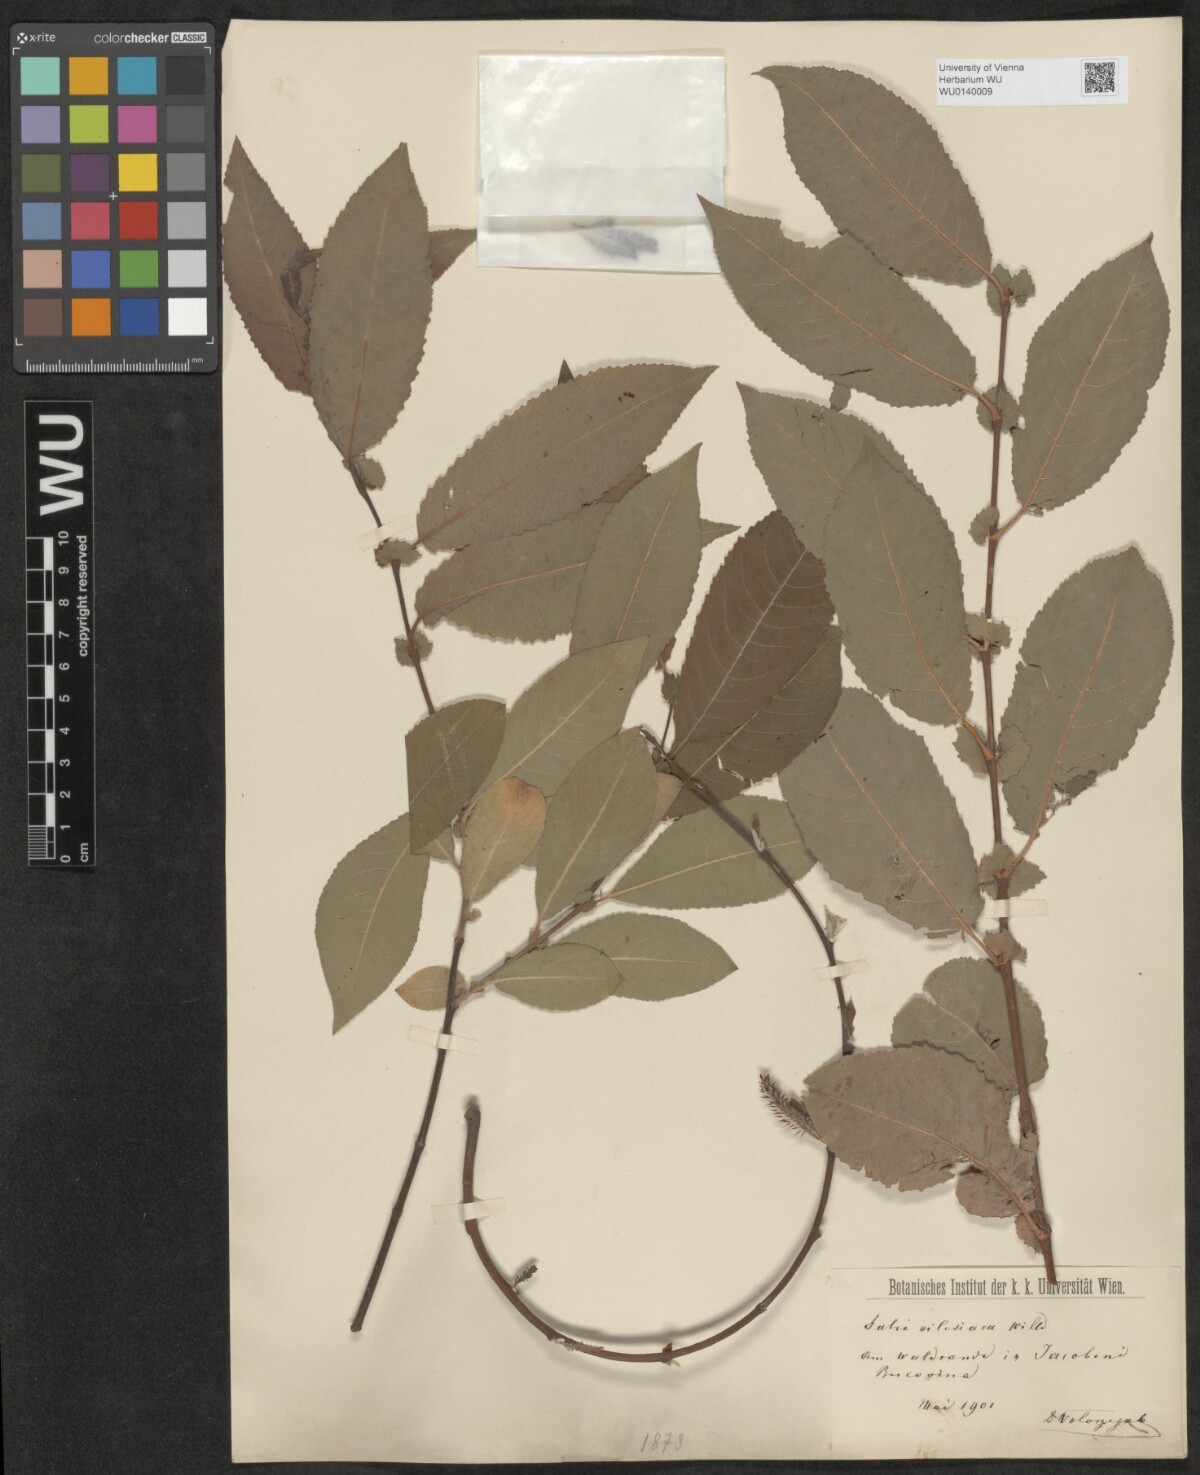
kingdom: Plantae
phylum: Tracheophyta
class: Magnoliopsida
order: Malpighiales
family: Salicaceae
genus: Salix
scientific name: Salix silesiaca
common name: Silesian willow
